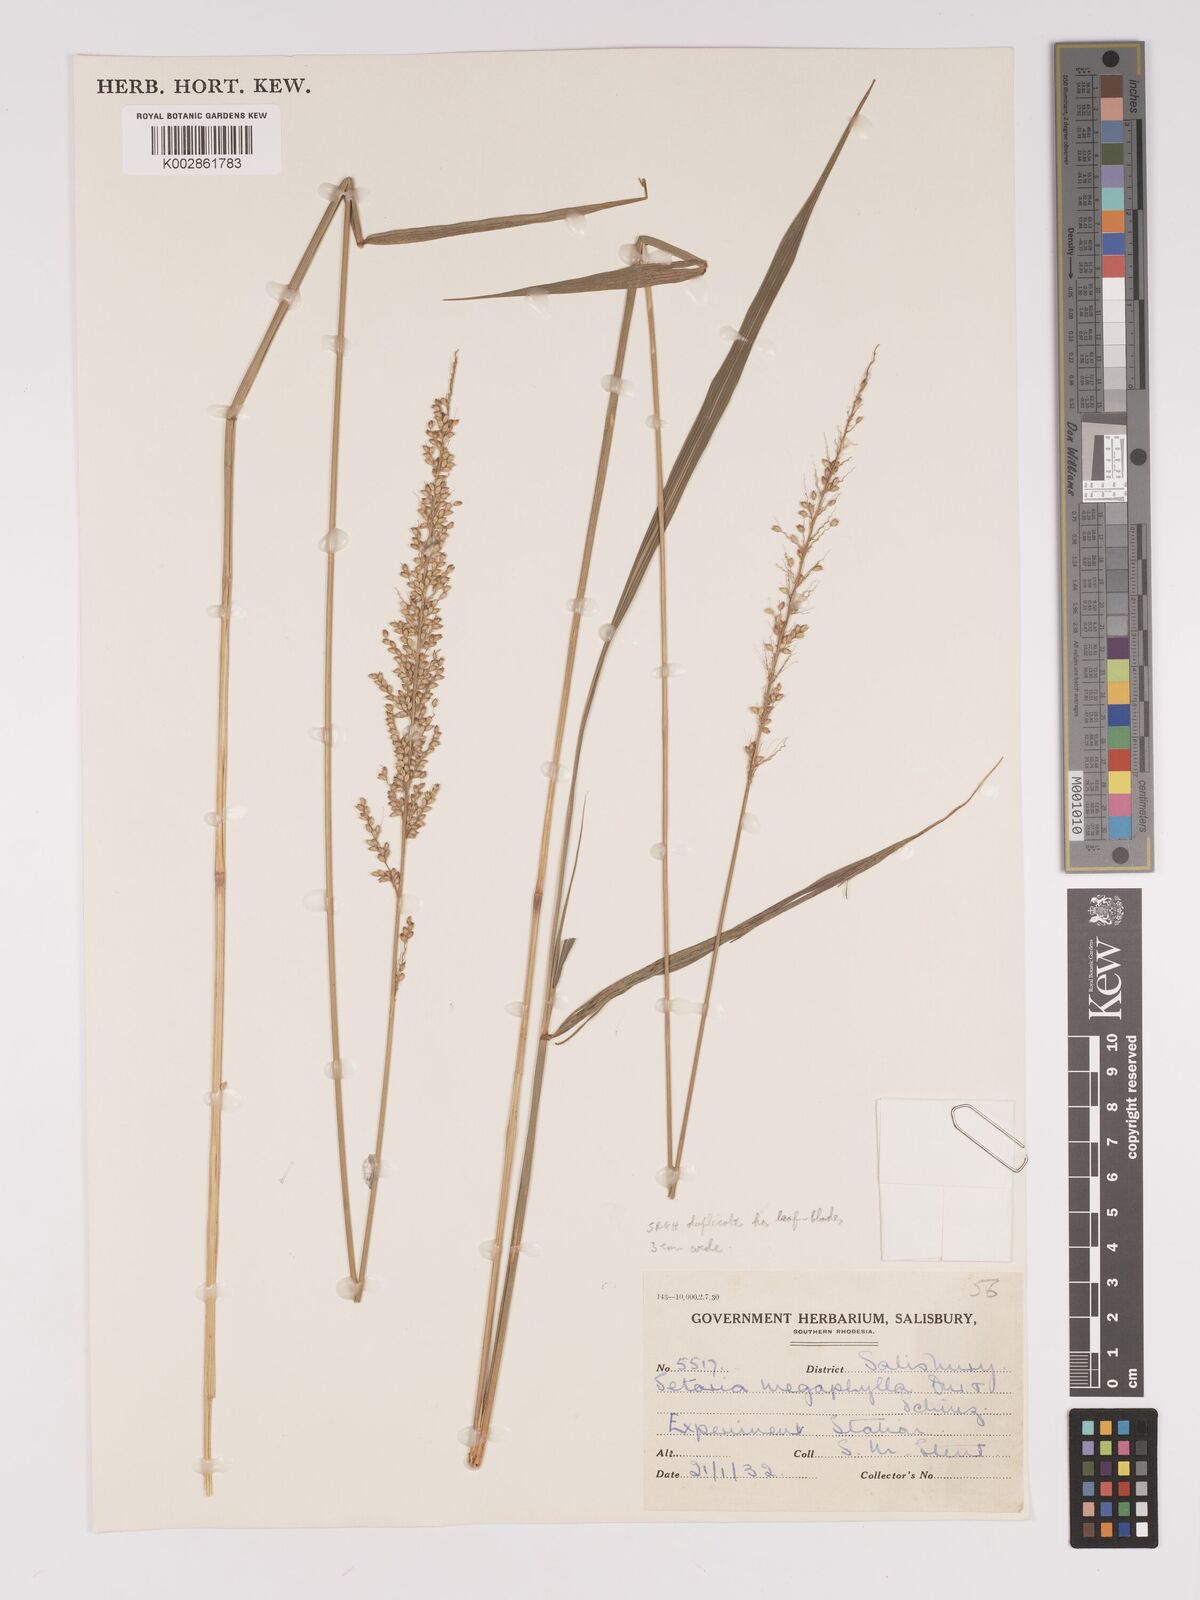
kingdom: Plantae
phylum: Tracheophyta
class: Liliopsida
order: Poales
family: Poaceae
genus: Setaria
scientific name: Setaria megaphylla
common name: Bigleaf bristlegrass
